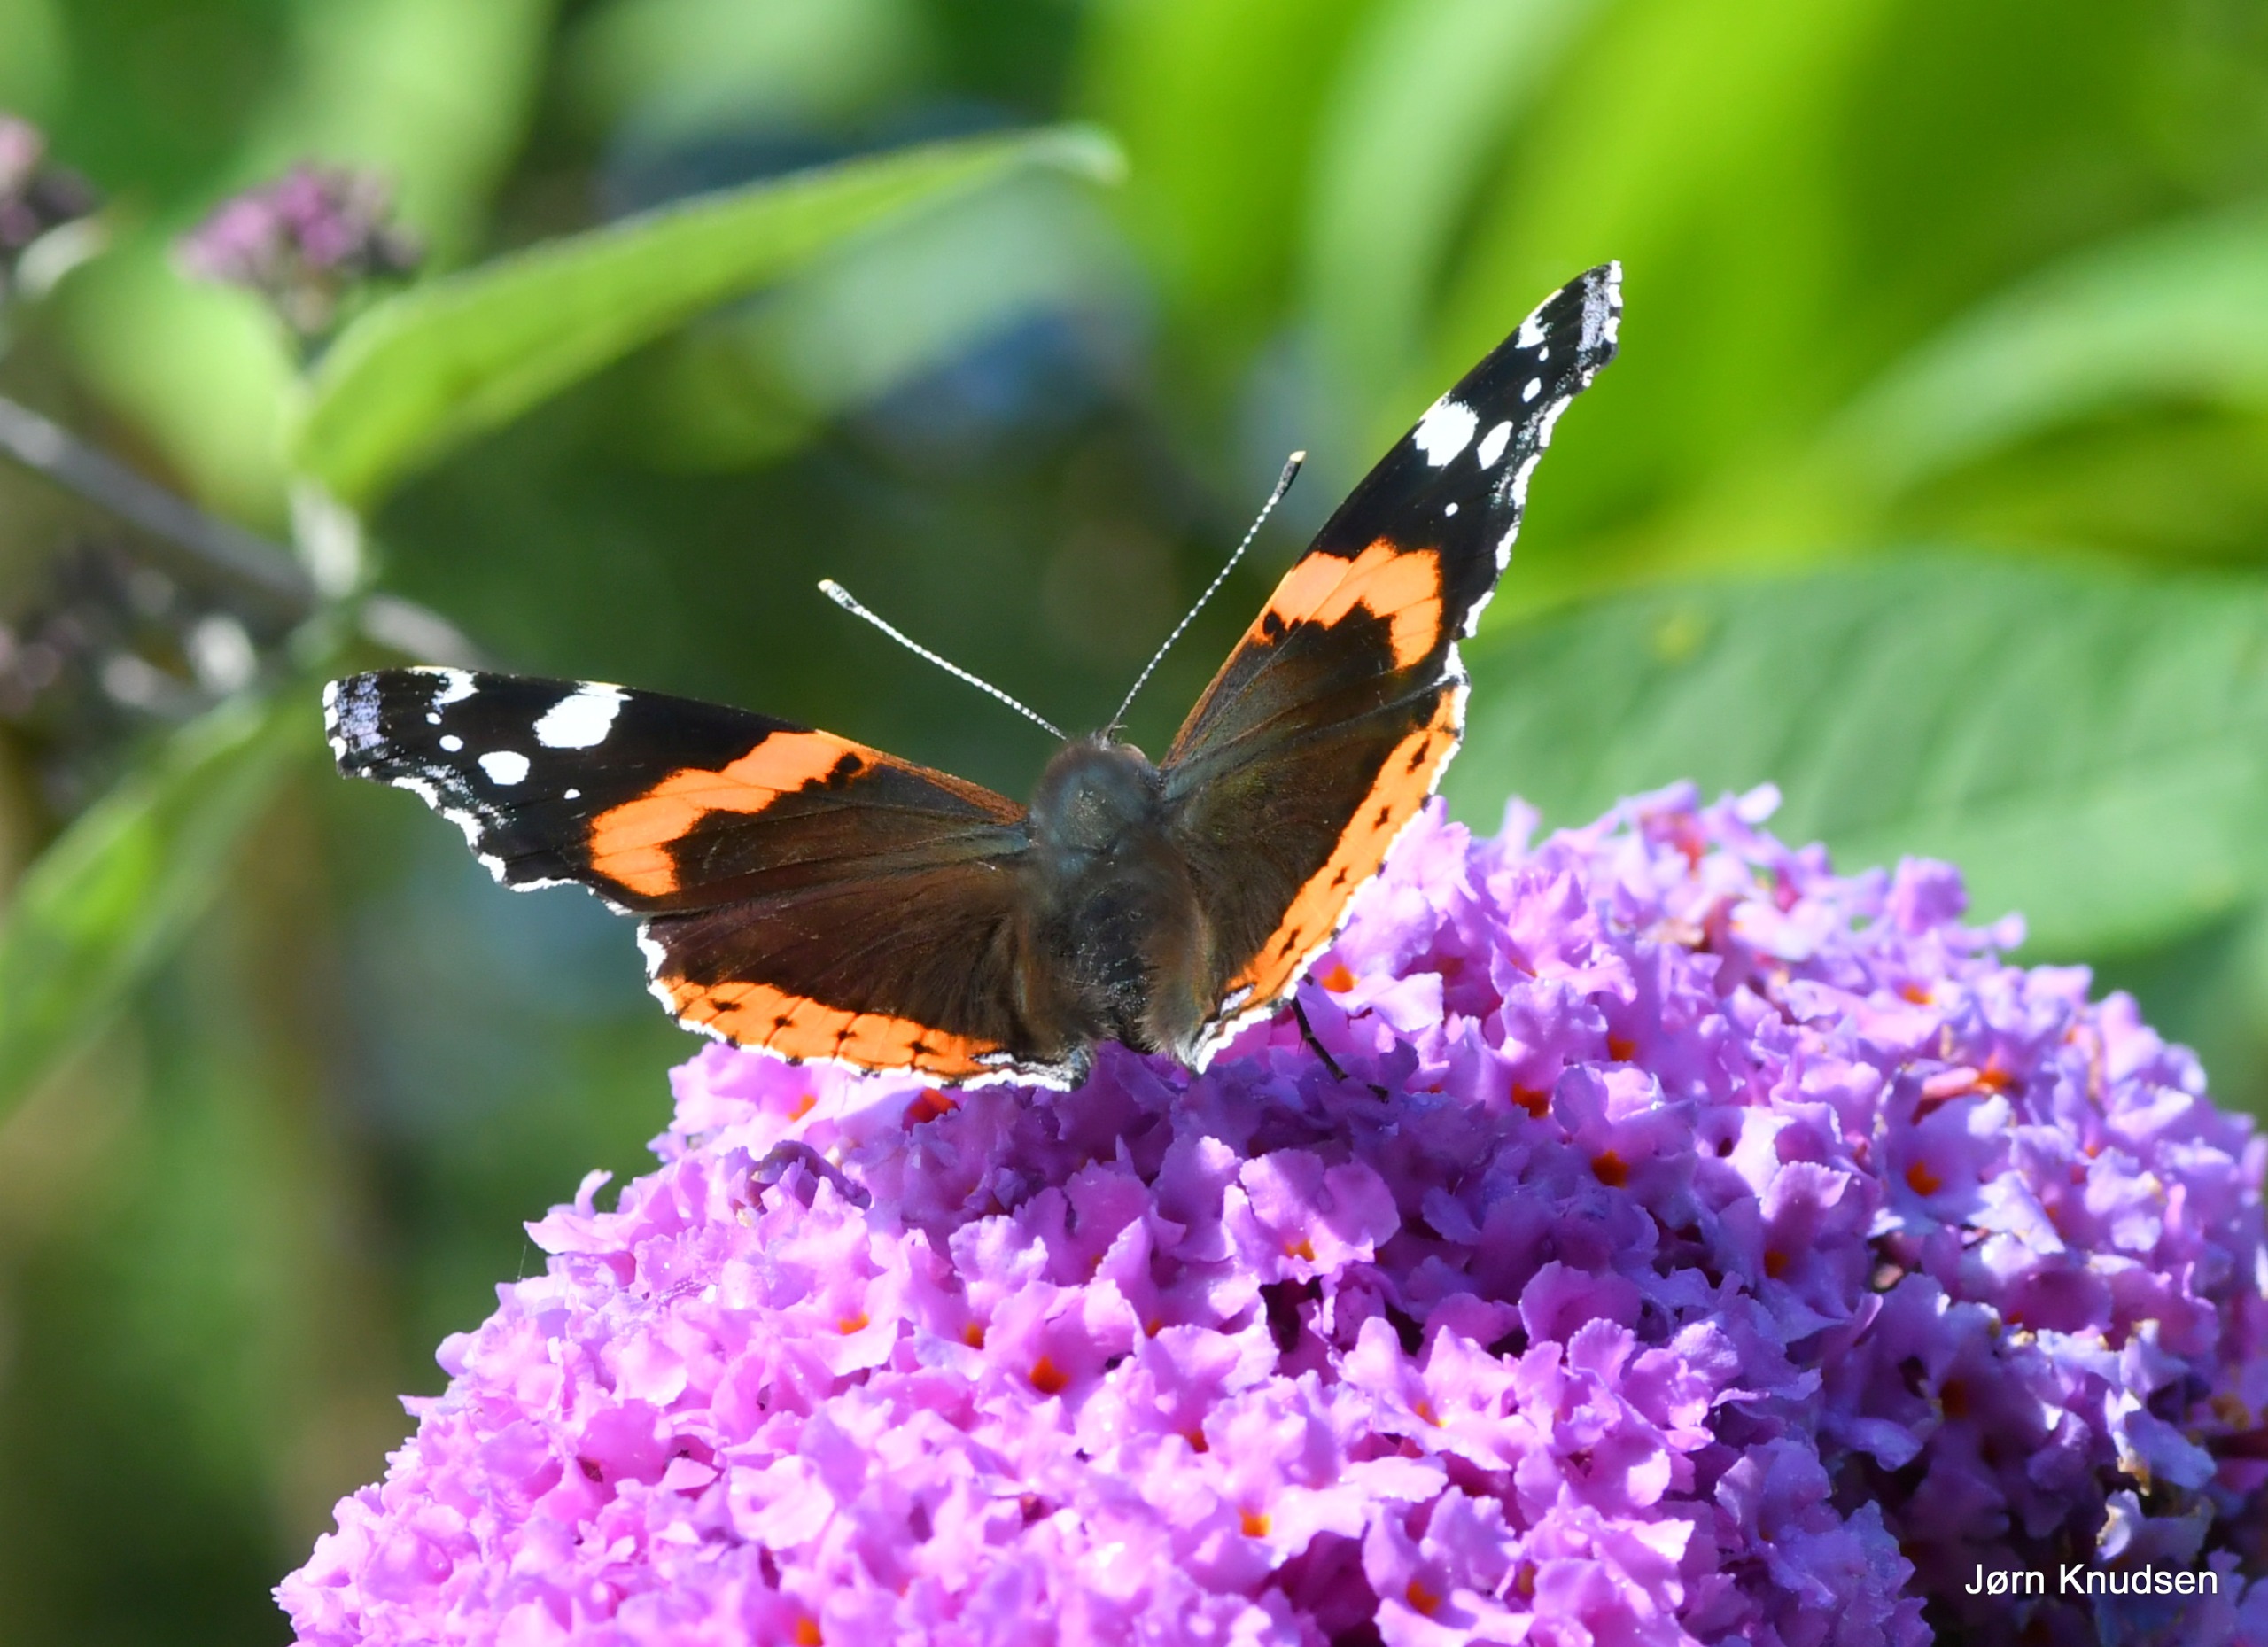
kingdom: Animalia
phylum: Arthropoda
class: Insecta
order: Lepidoptera
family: Nymphalidae
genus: Vanessa
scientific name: Vanessa atalanta
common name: Admiral
